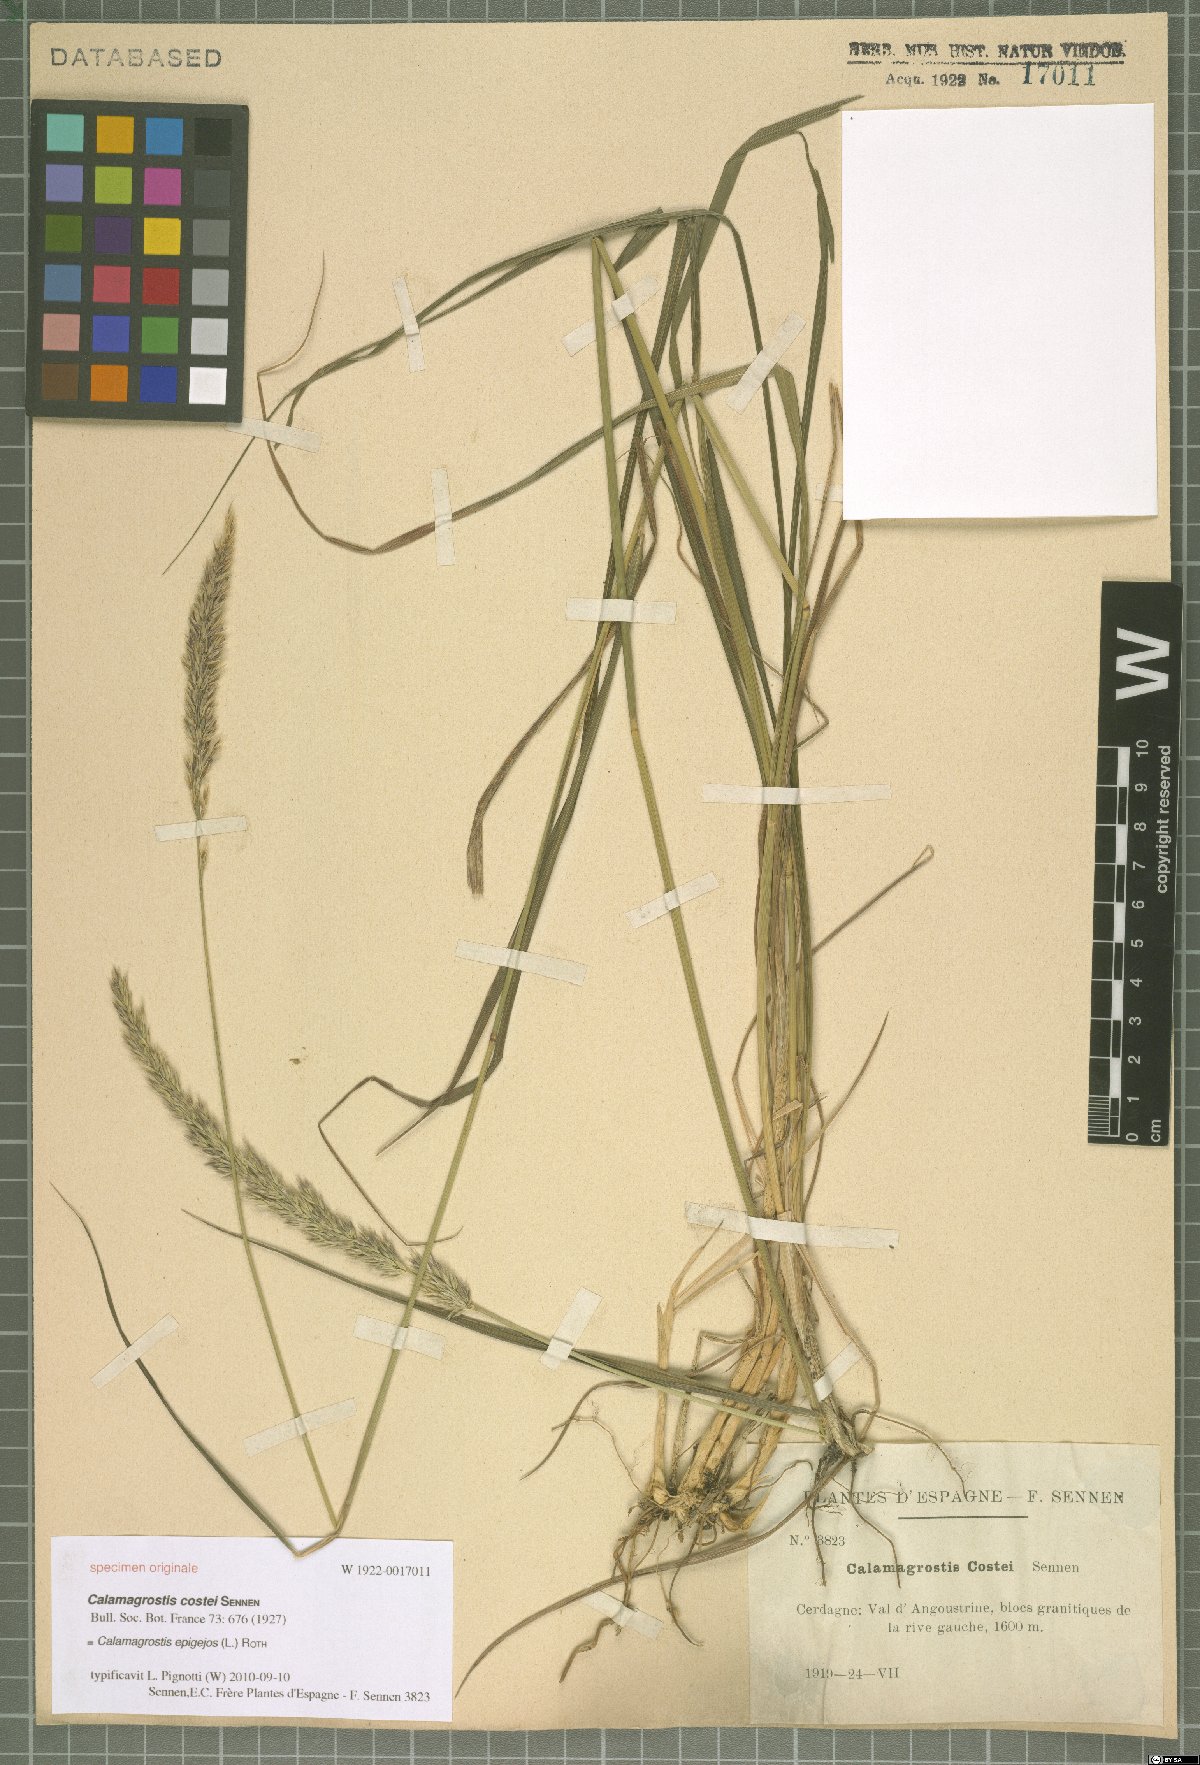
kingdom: Plantae
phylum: Tracheophyta
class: Liliopsida
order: Poales
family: Poaceae
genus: Calamagrostis
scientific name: Calamagrostis epigejos
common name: Wood small-reed
